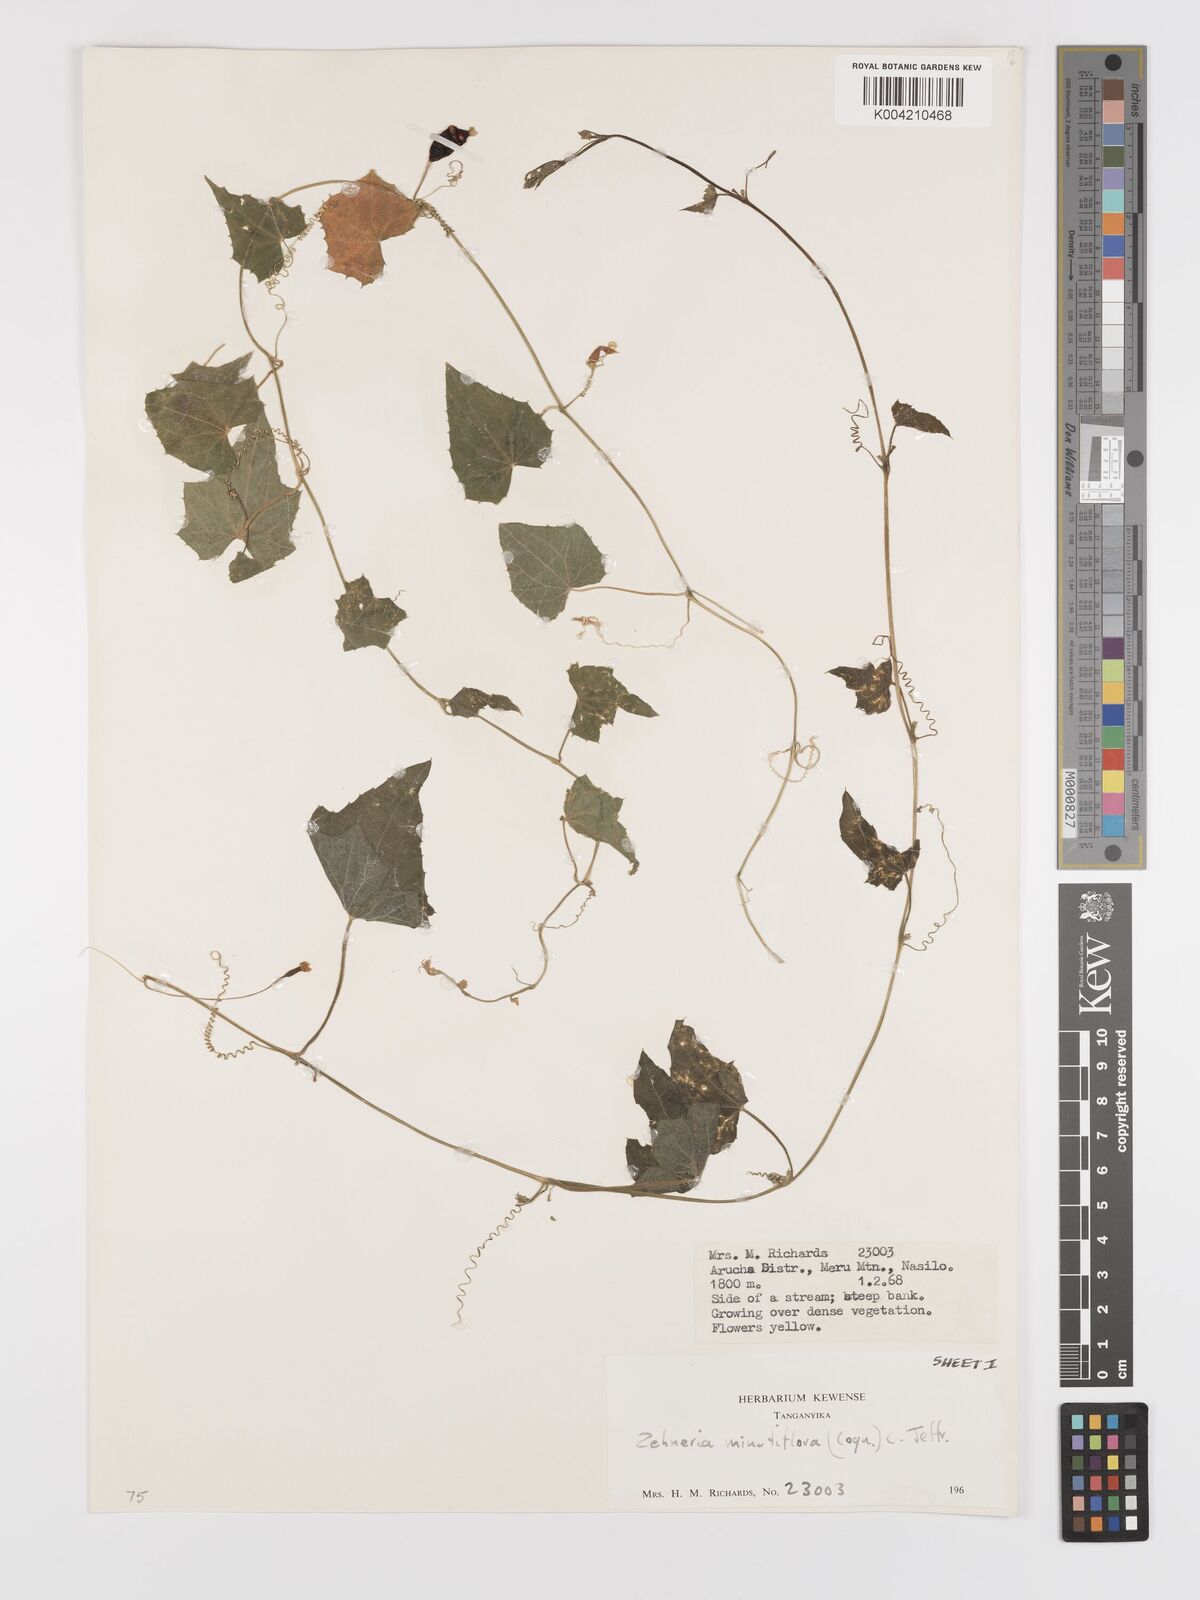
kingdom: Plantae
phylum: Tracheophyta
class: Magnoliopsida
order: Cucurbitales
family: Cucurbitaceae
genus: Zehneria
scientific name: Zehneria minutiflora
